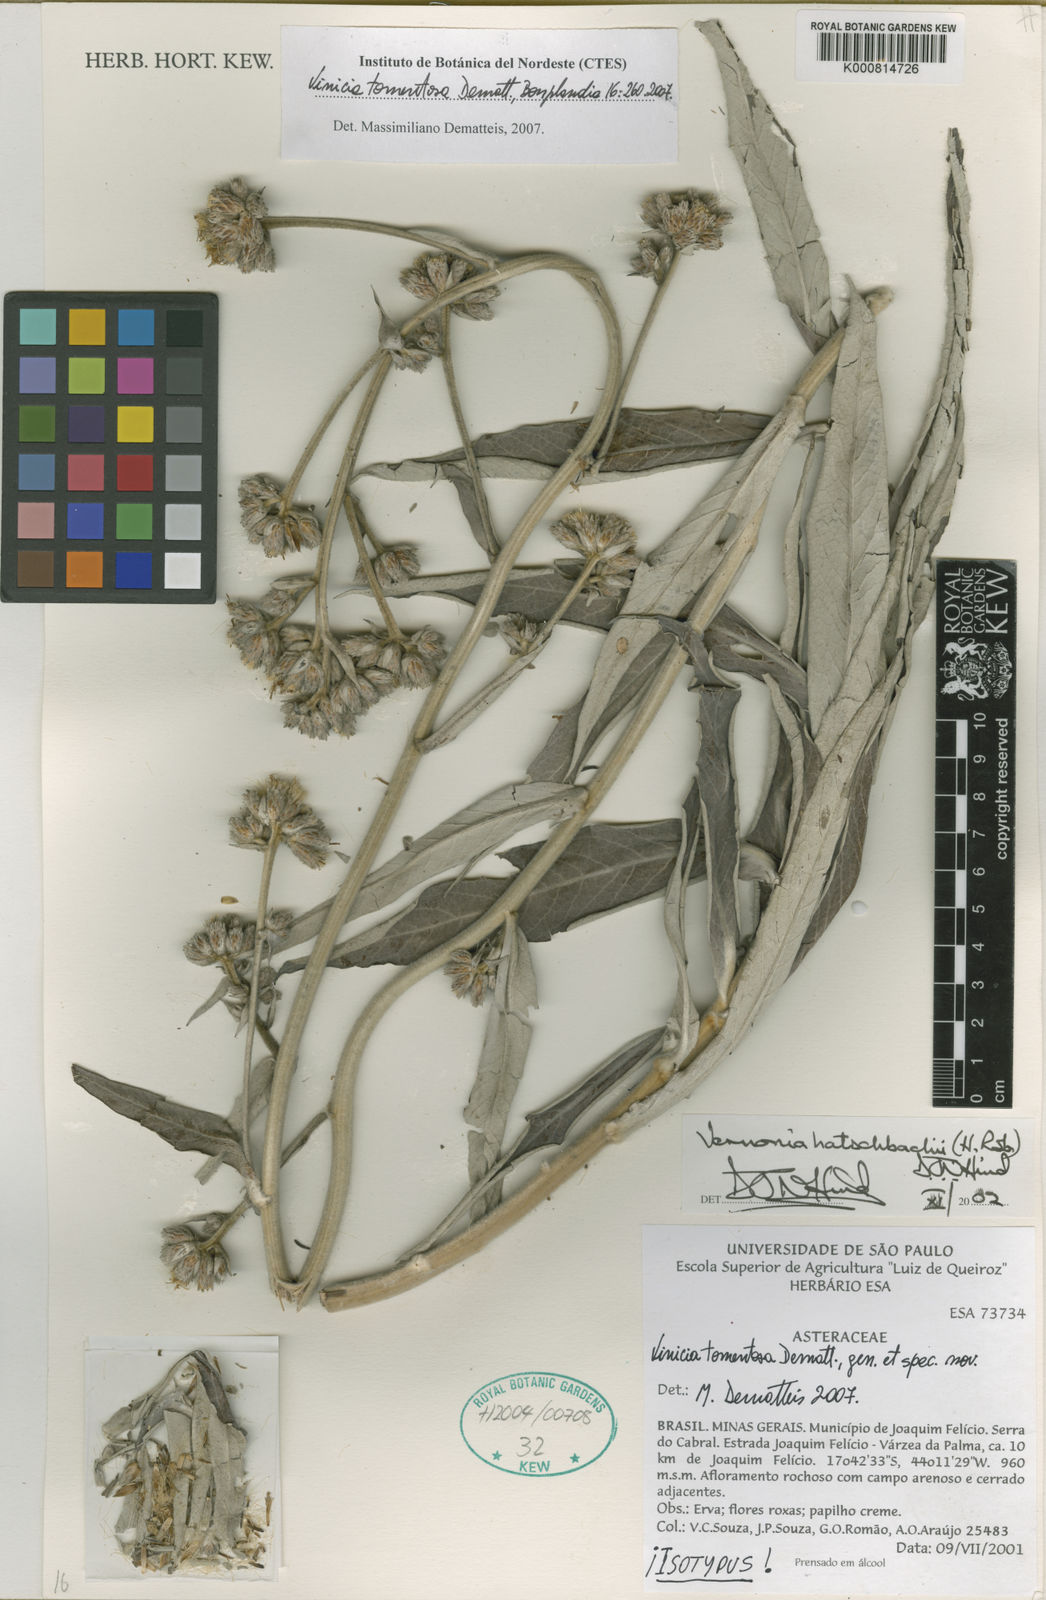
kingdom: Plantae
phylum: Tracheophyta
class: Magnoliopsida
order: Asterales
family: Asteraceae
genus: Vinicia
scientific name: Vinicia tomentosa
